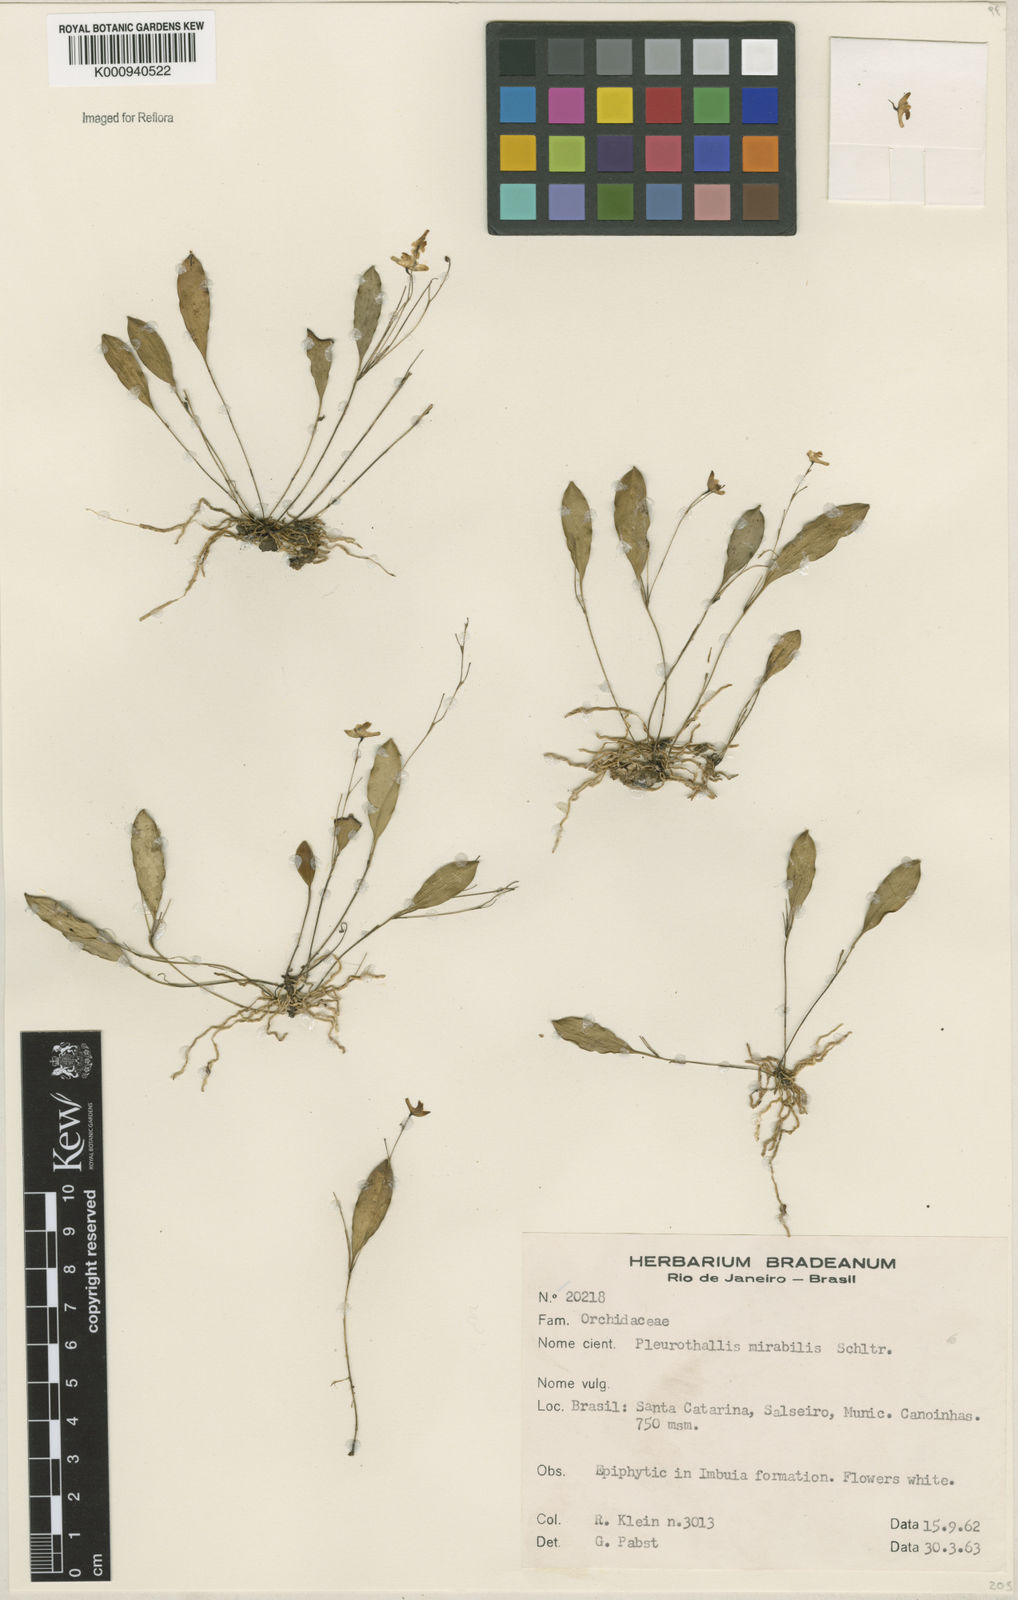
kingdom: Plantae
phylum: Tracheophyta
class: Liliopsida
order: Asparagales
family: Orchidaceae
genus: Pabstiella
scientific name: Pabstiella mirabilis
